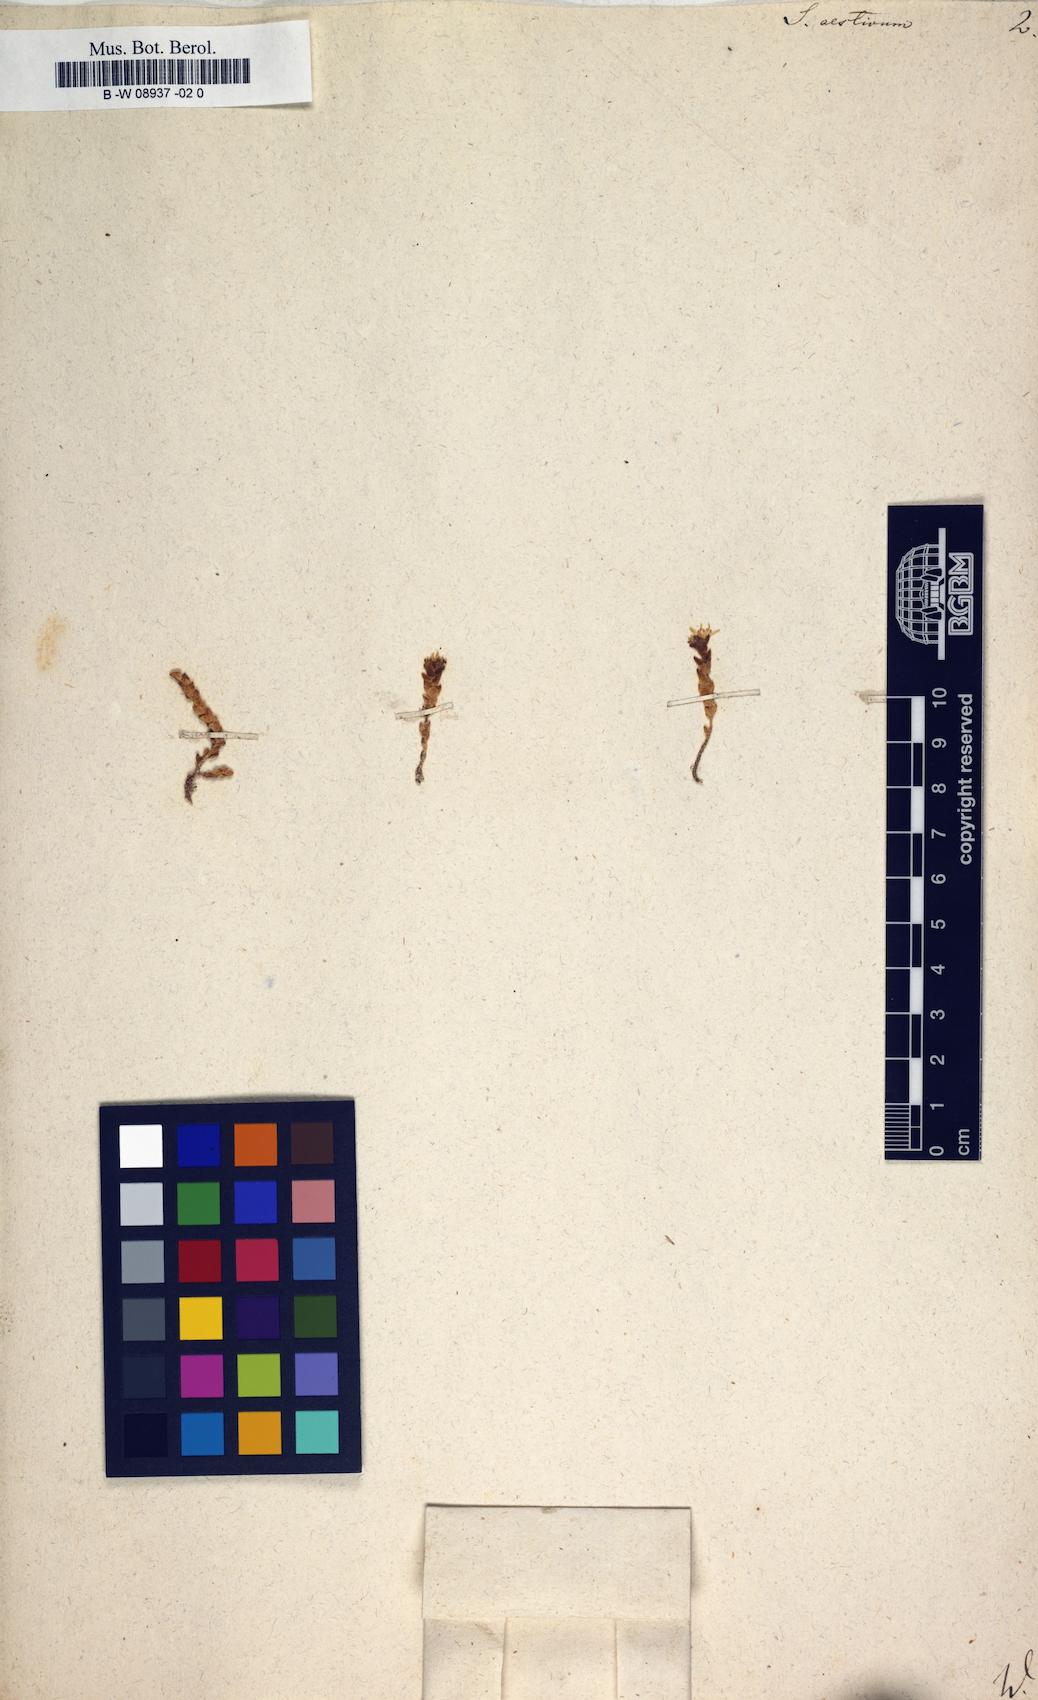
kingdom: Plantae
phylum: Tracheophyta
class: Magnoliopsida
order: Saxifragales
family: Crassulaceae
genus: Sedum
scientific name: Sedum
